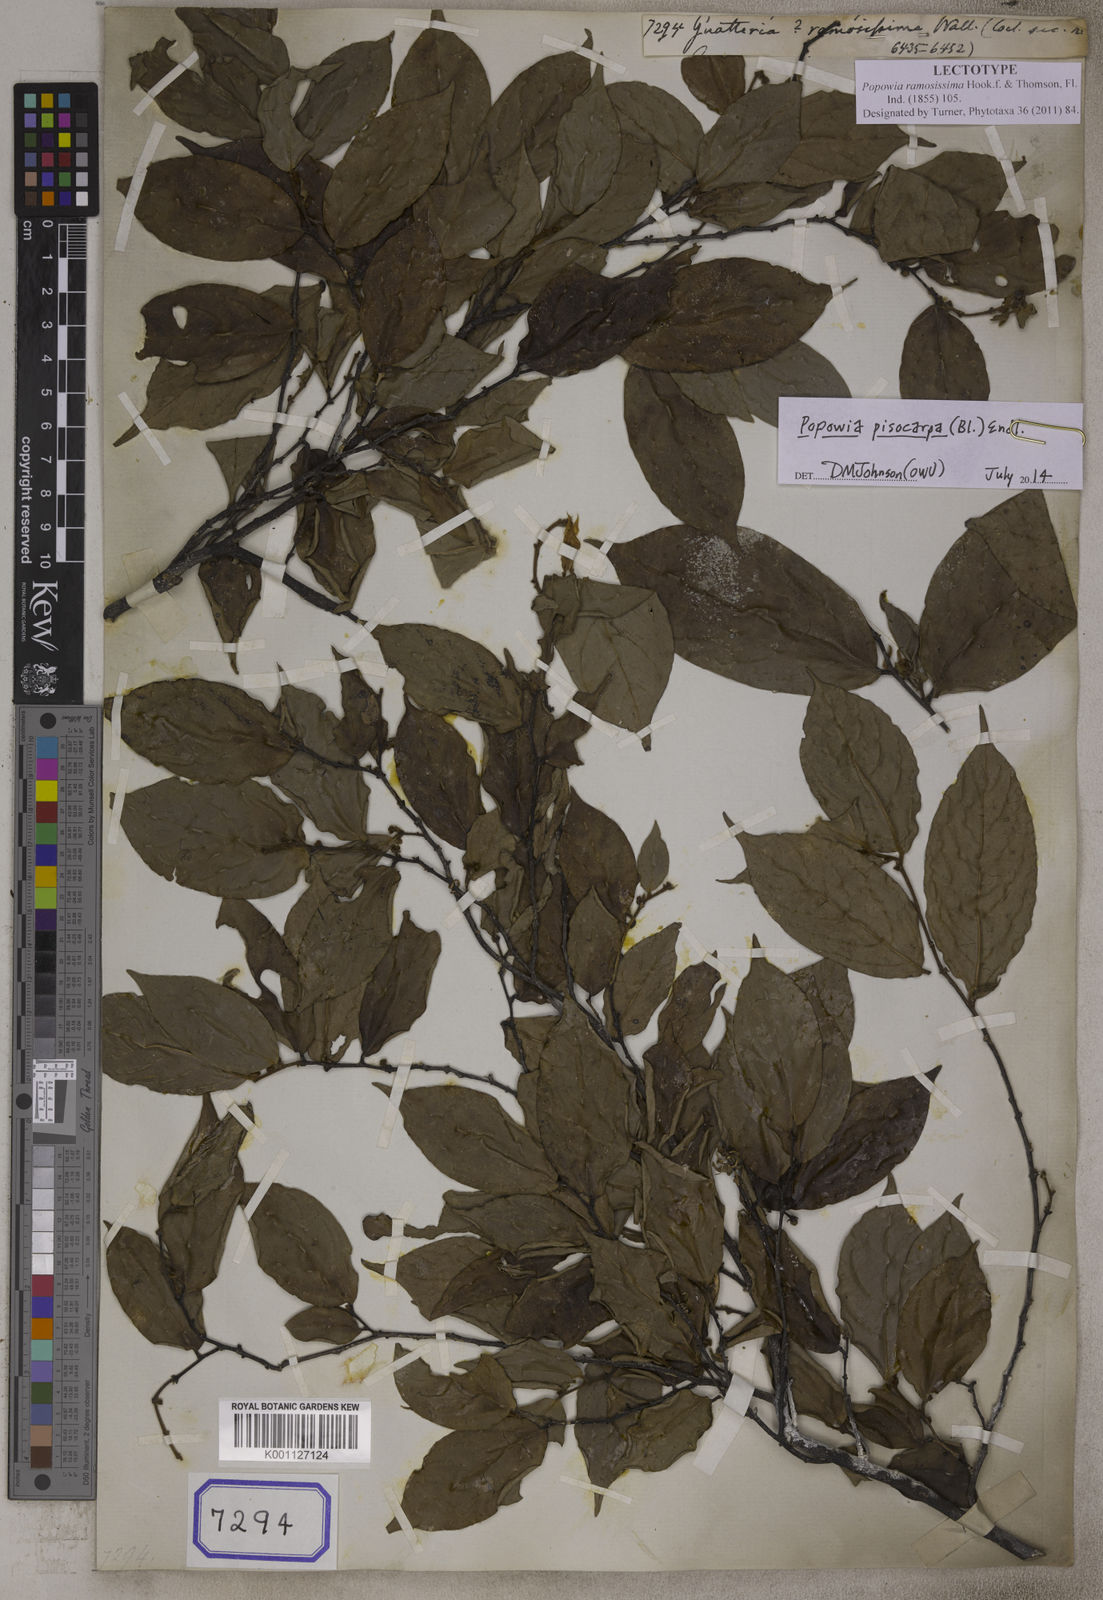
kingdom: Plantae
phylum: Tracheophyta
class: Magnoliopsida
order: Magnoliales
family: Annonaceae
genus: Popowia
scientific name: Popowia pisocarpa
